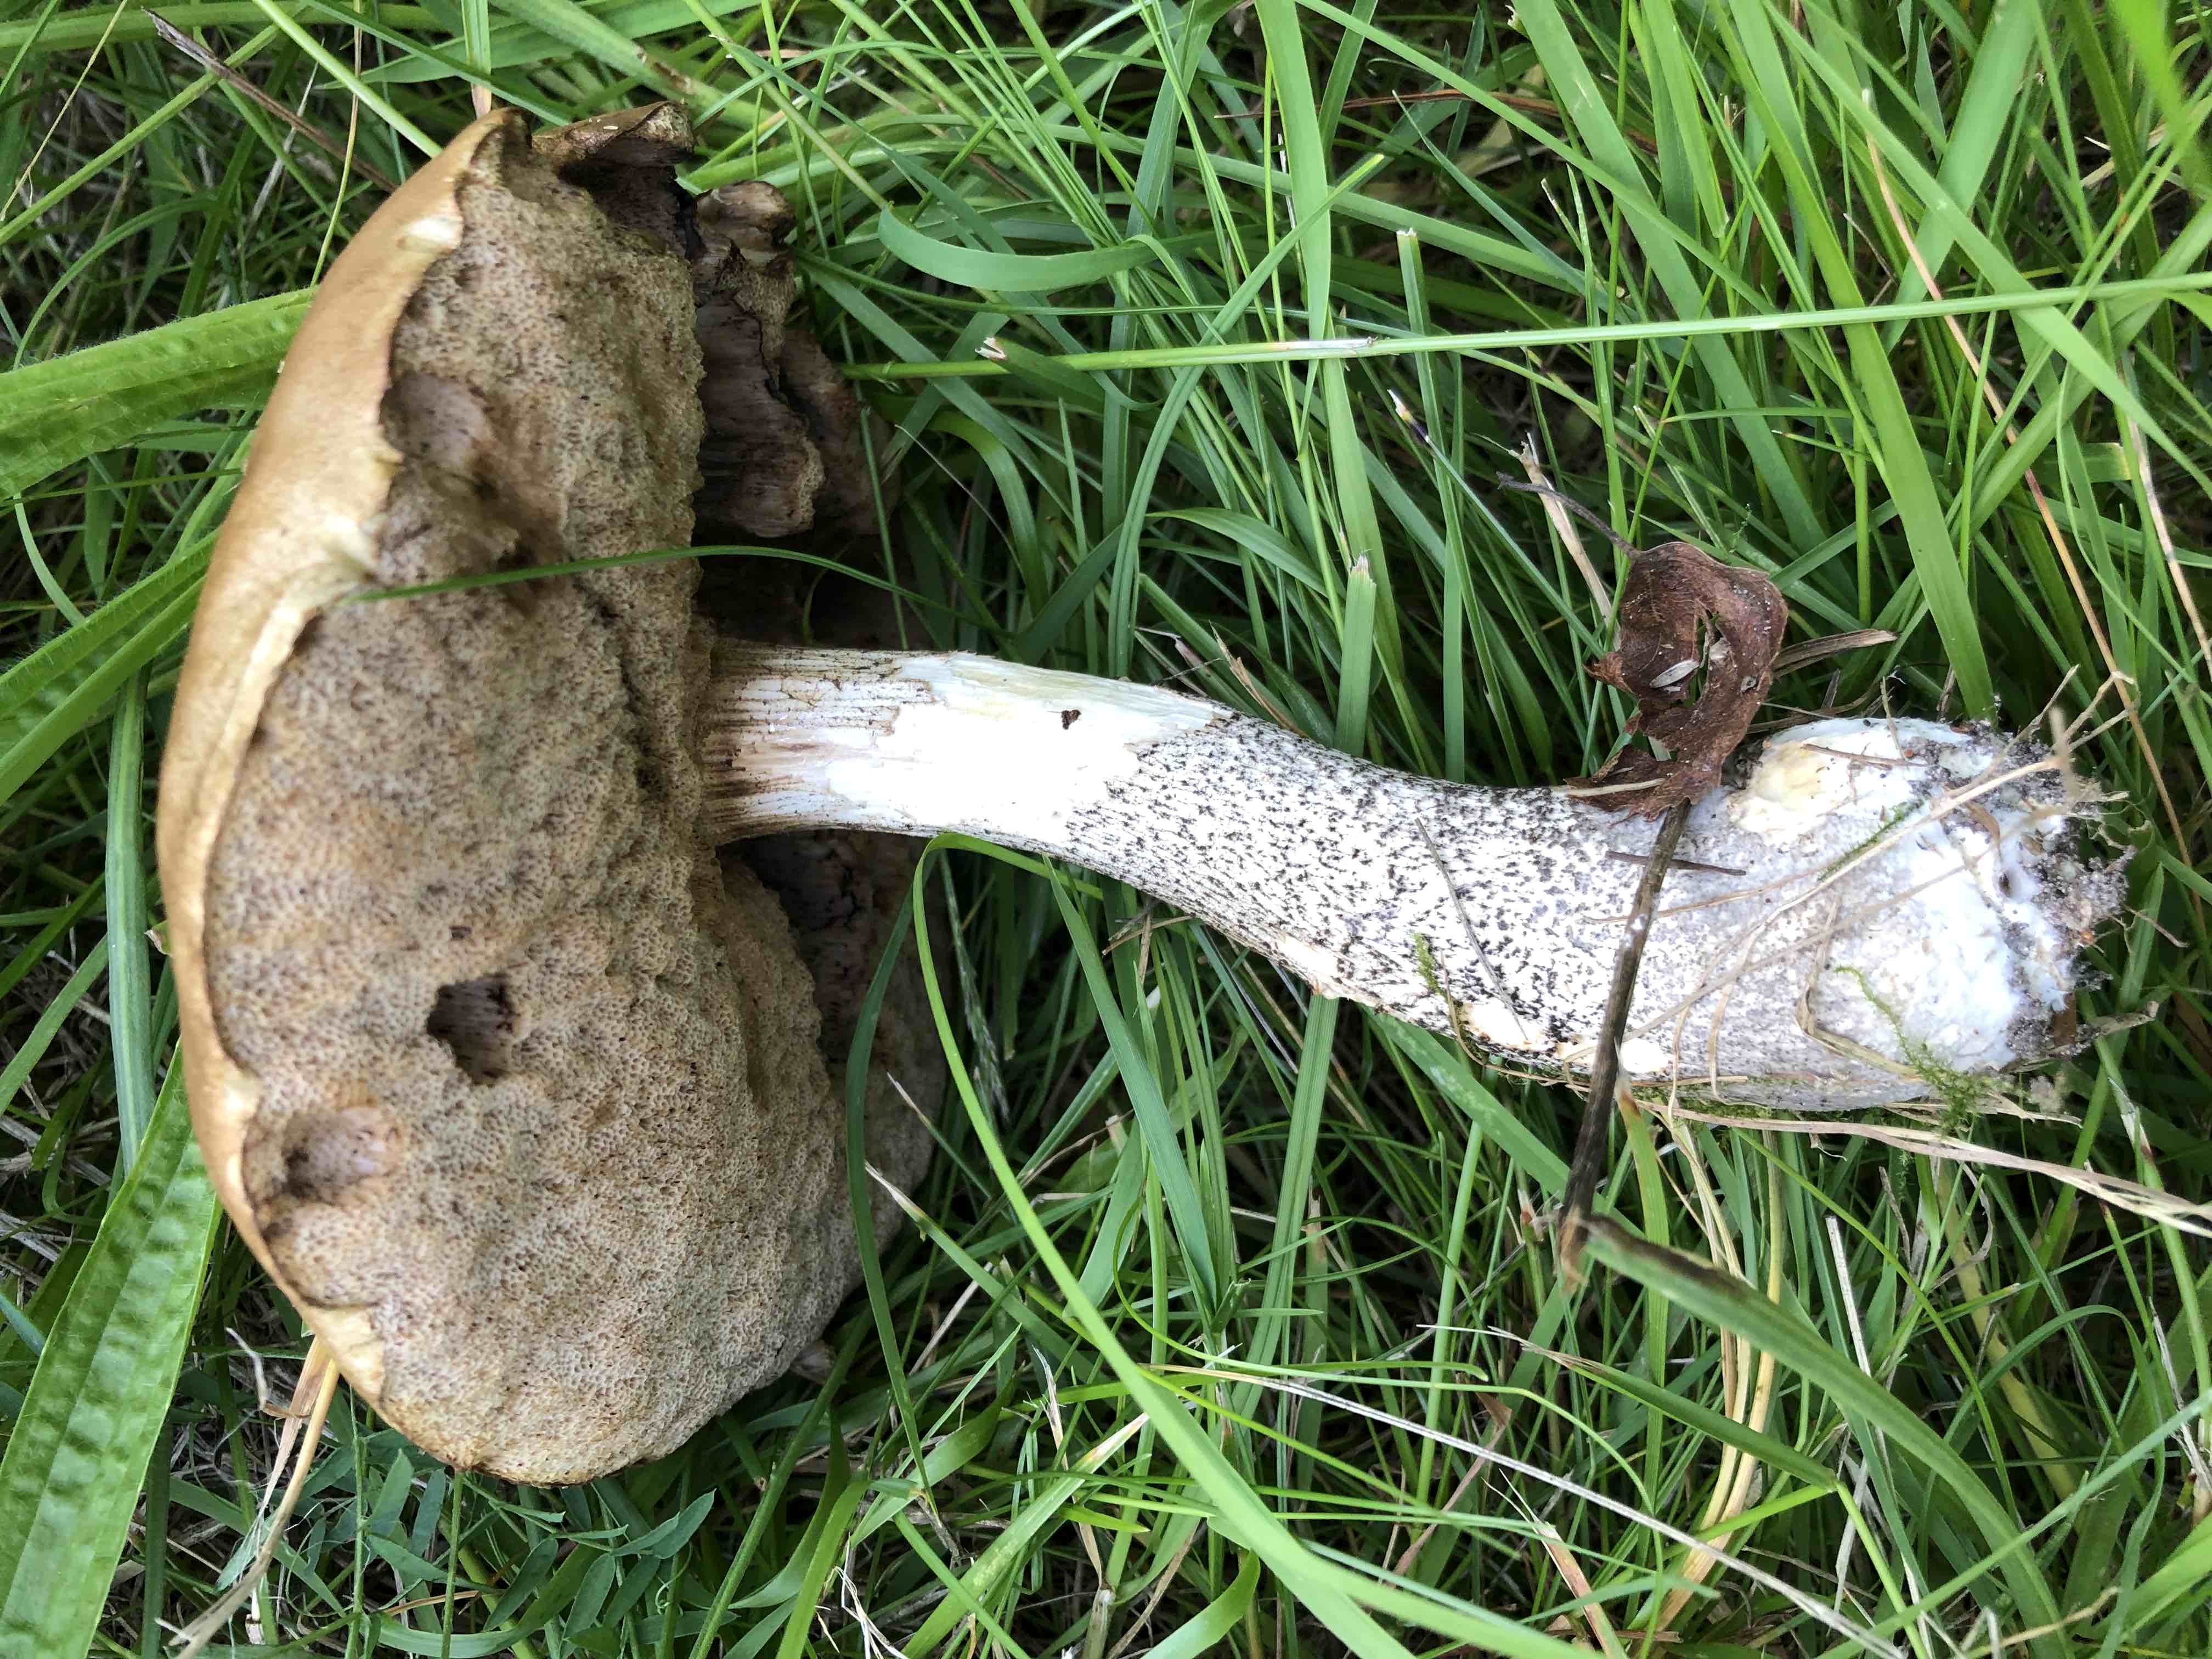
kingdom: Fungi
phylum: Basidiomycota
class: Agaricomycetes
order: Boletales
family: Boletaceae
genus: Leccinum
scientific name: Leccinum scabrum
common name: brun skælrørhat
